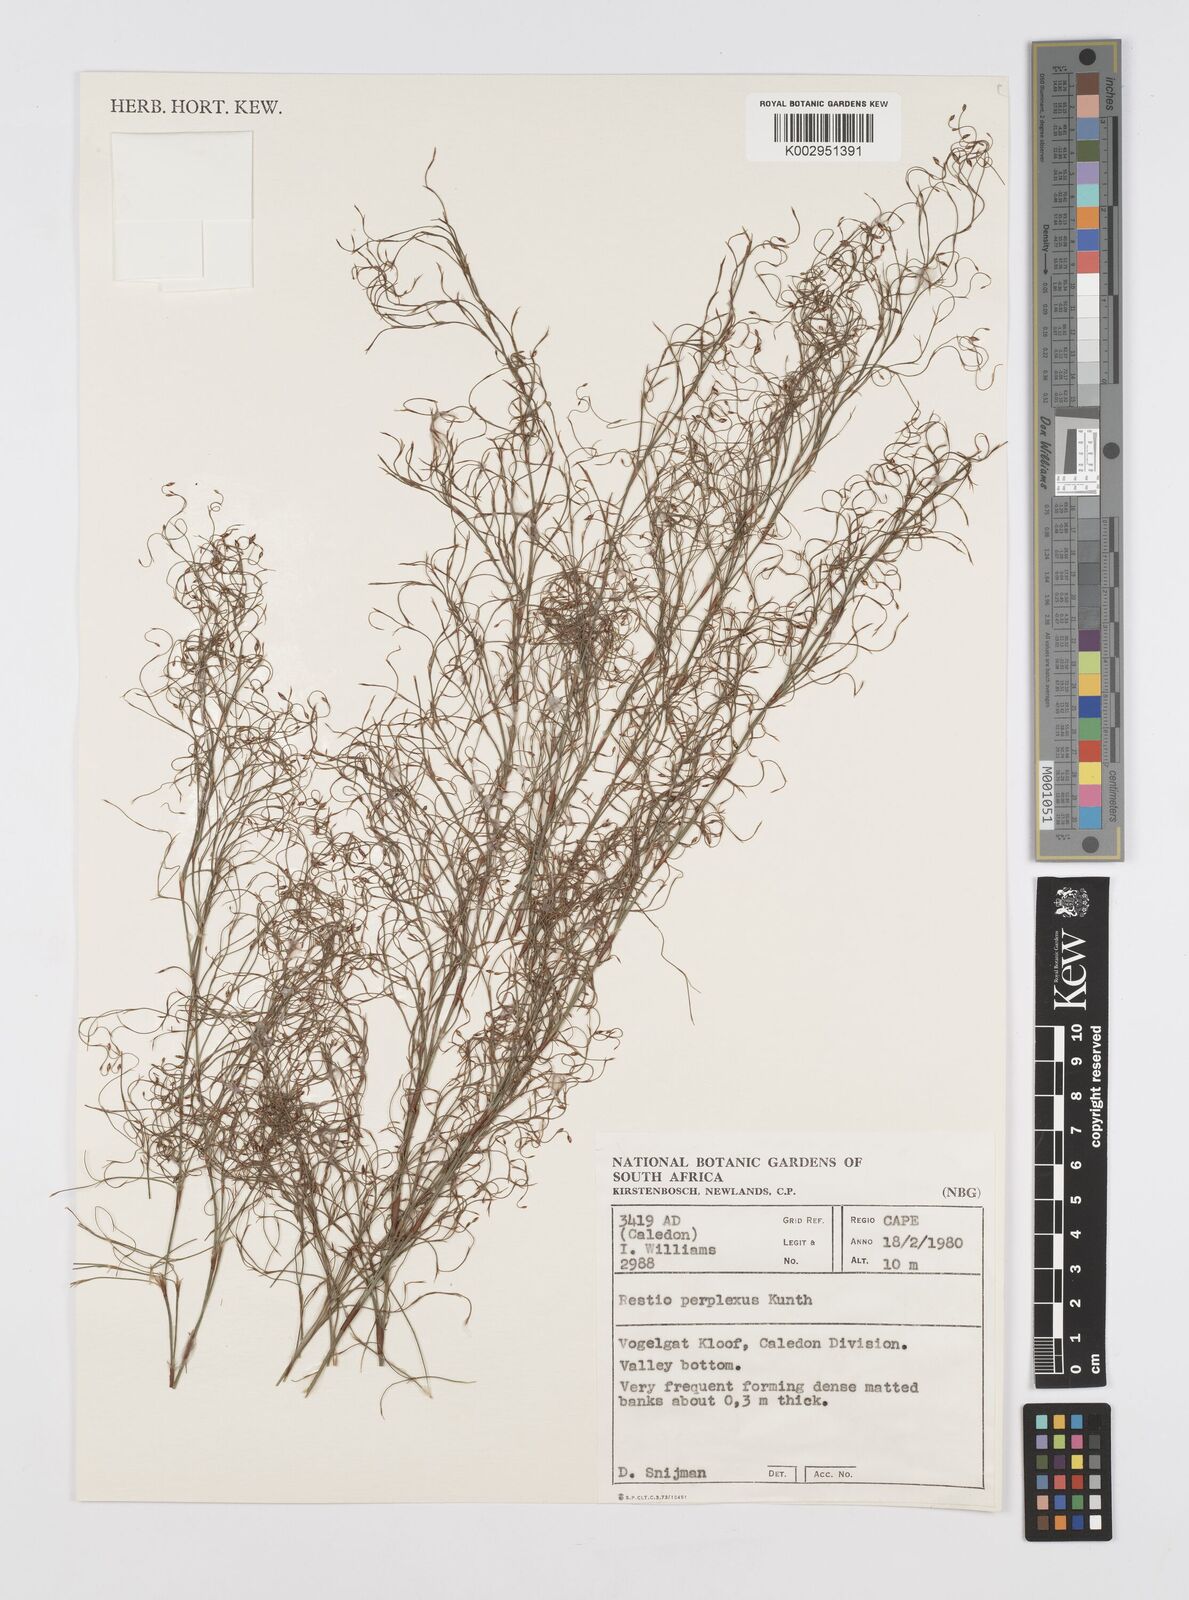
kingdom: Plantae
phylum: Tracheophyta
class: Liliopsida
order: Poales
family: Restionaceae
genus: Restio
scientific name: Restio perplexus
